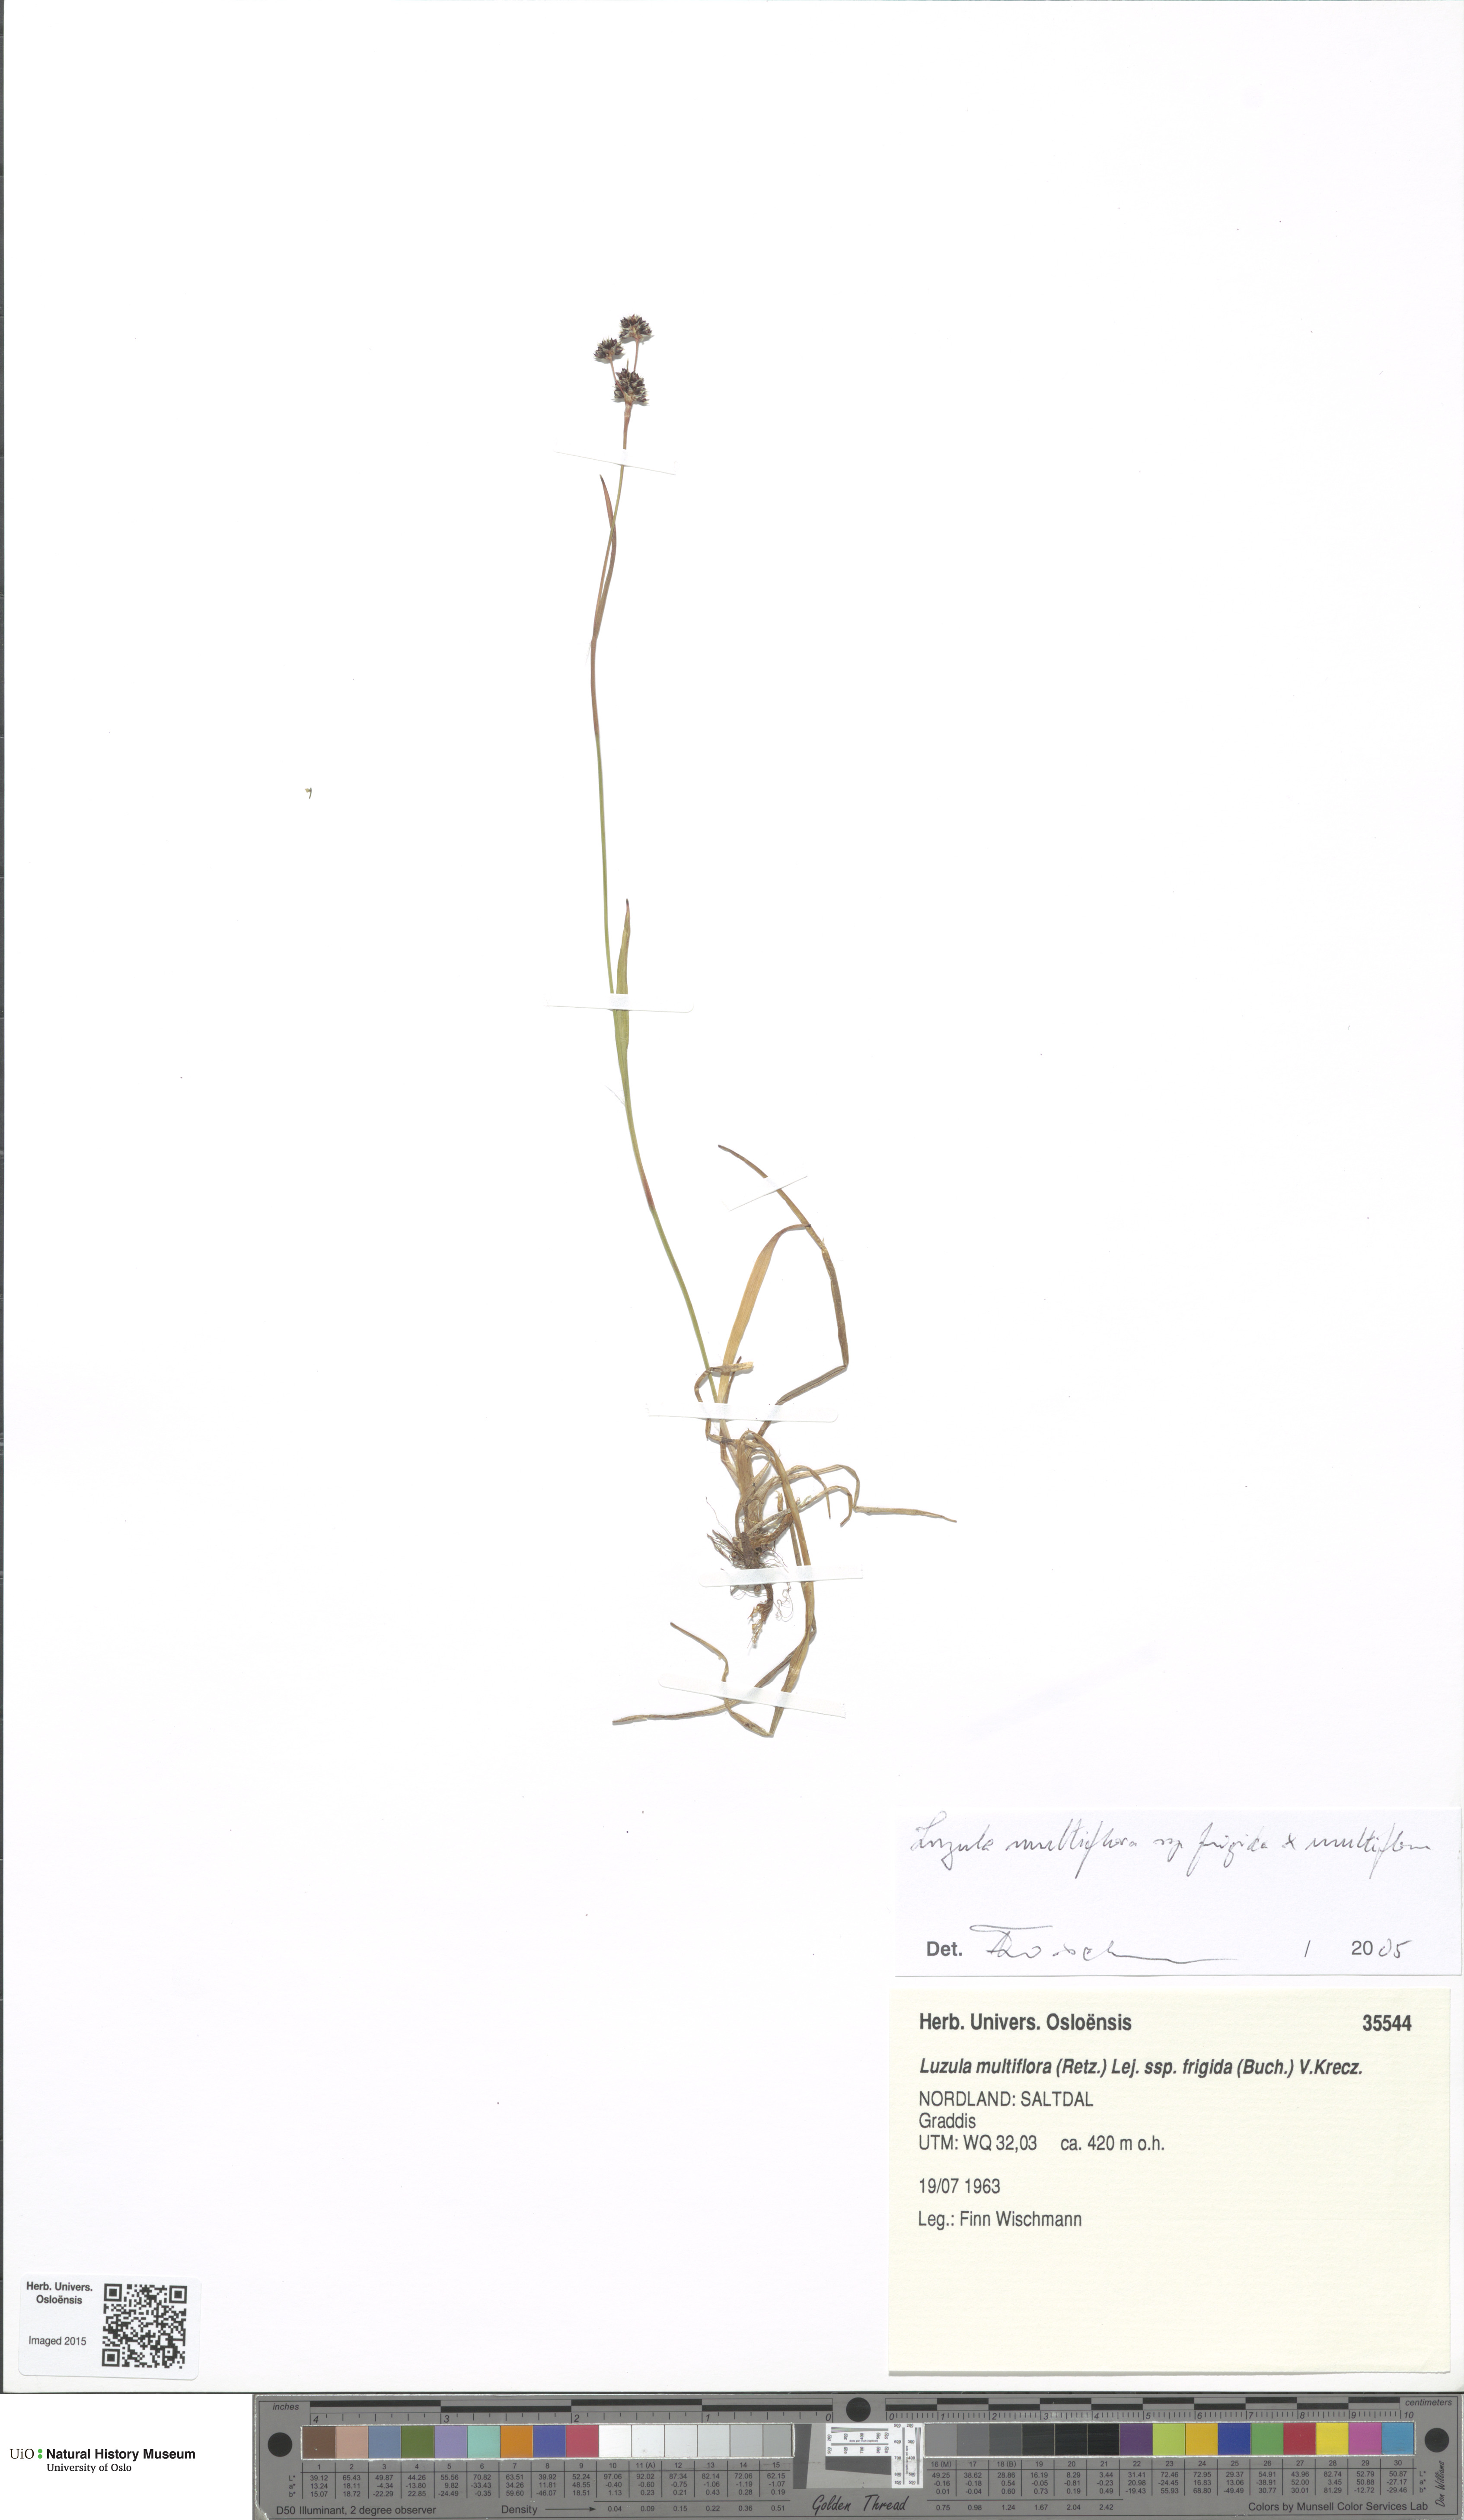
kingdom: Plantae
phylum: Tracheophyta
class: Liliopsida
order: Poales
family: Juncaceae
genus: Luzula
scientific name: Luzula
